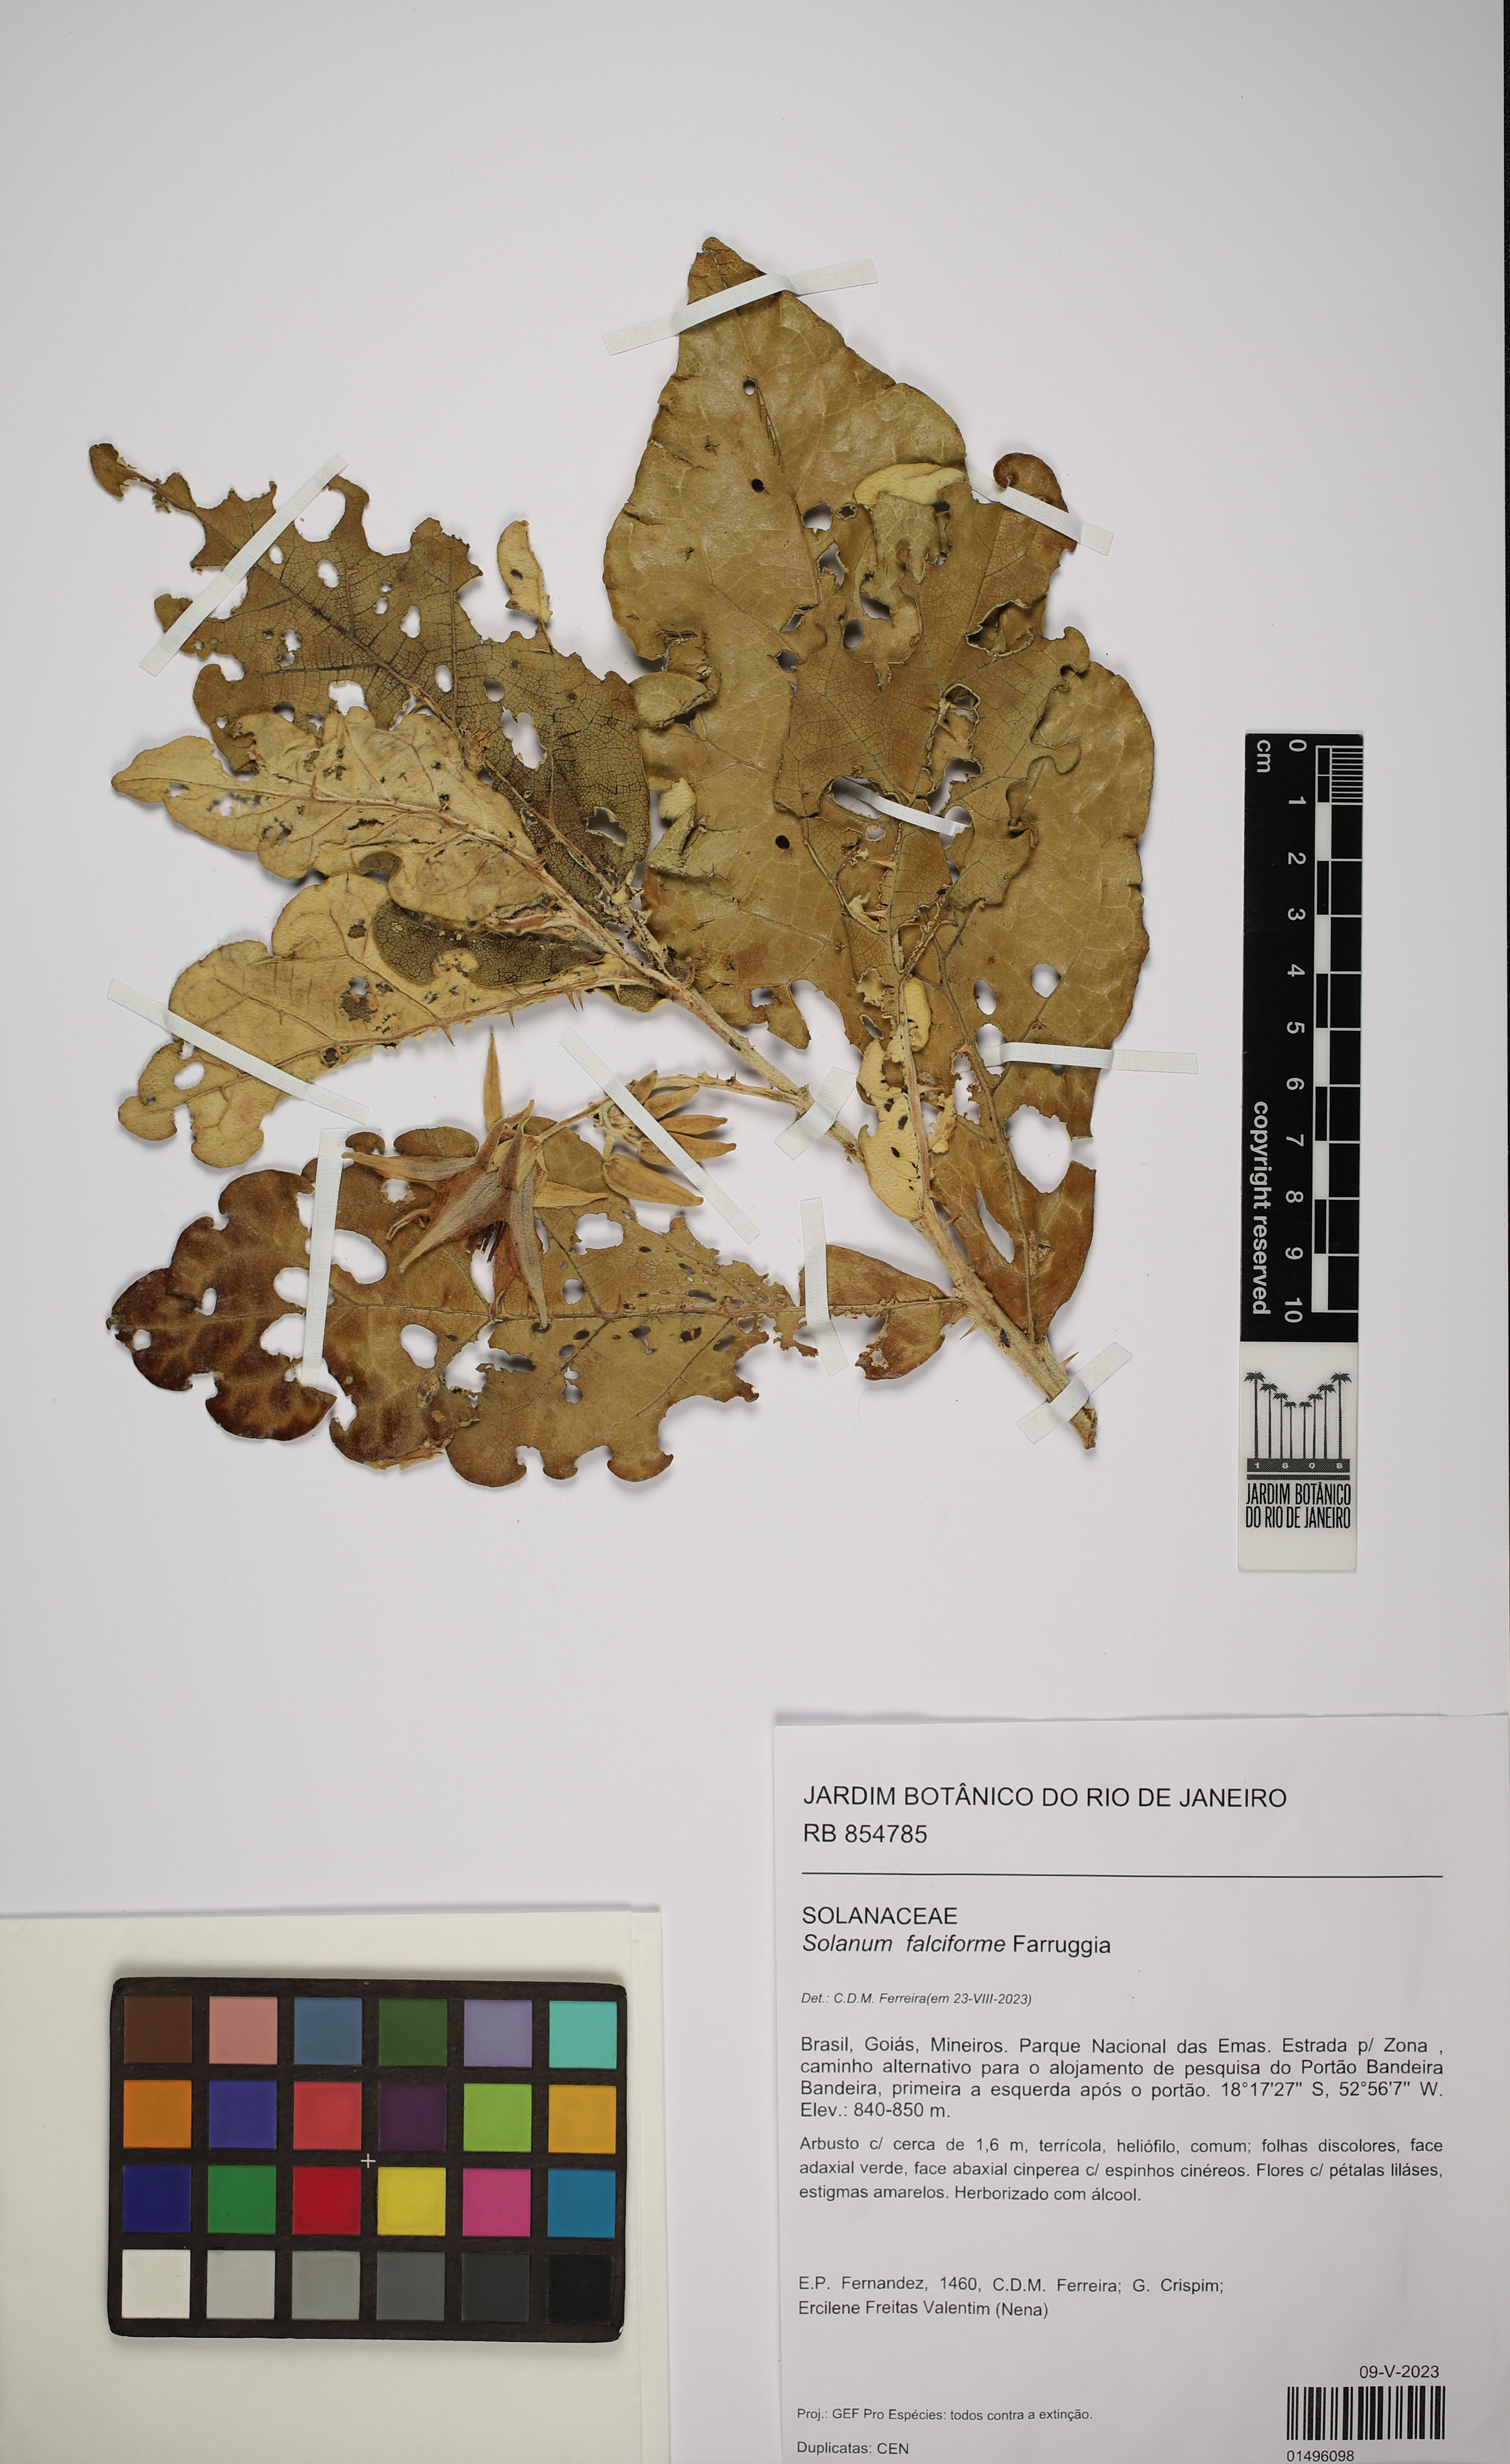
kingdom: Plantae
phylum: Tracheophyta
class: Magnoliopsida
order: Solanales
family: Solanaceae
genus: Solanum
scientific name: Solanum falciforme
